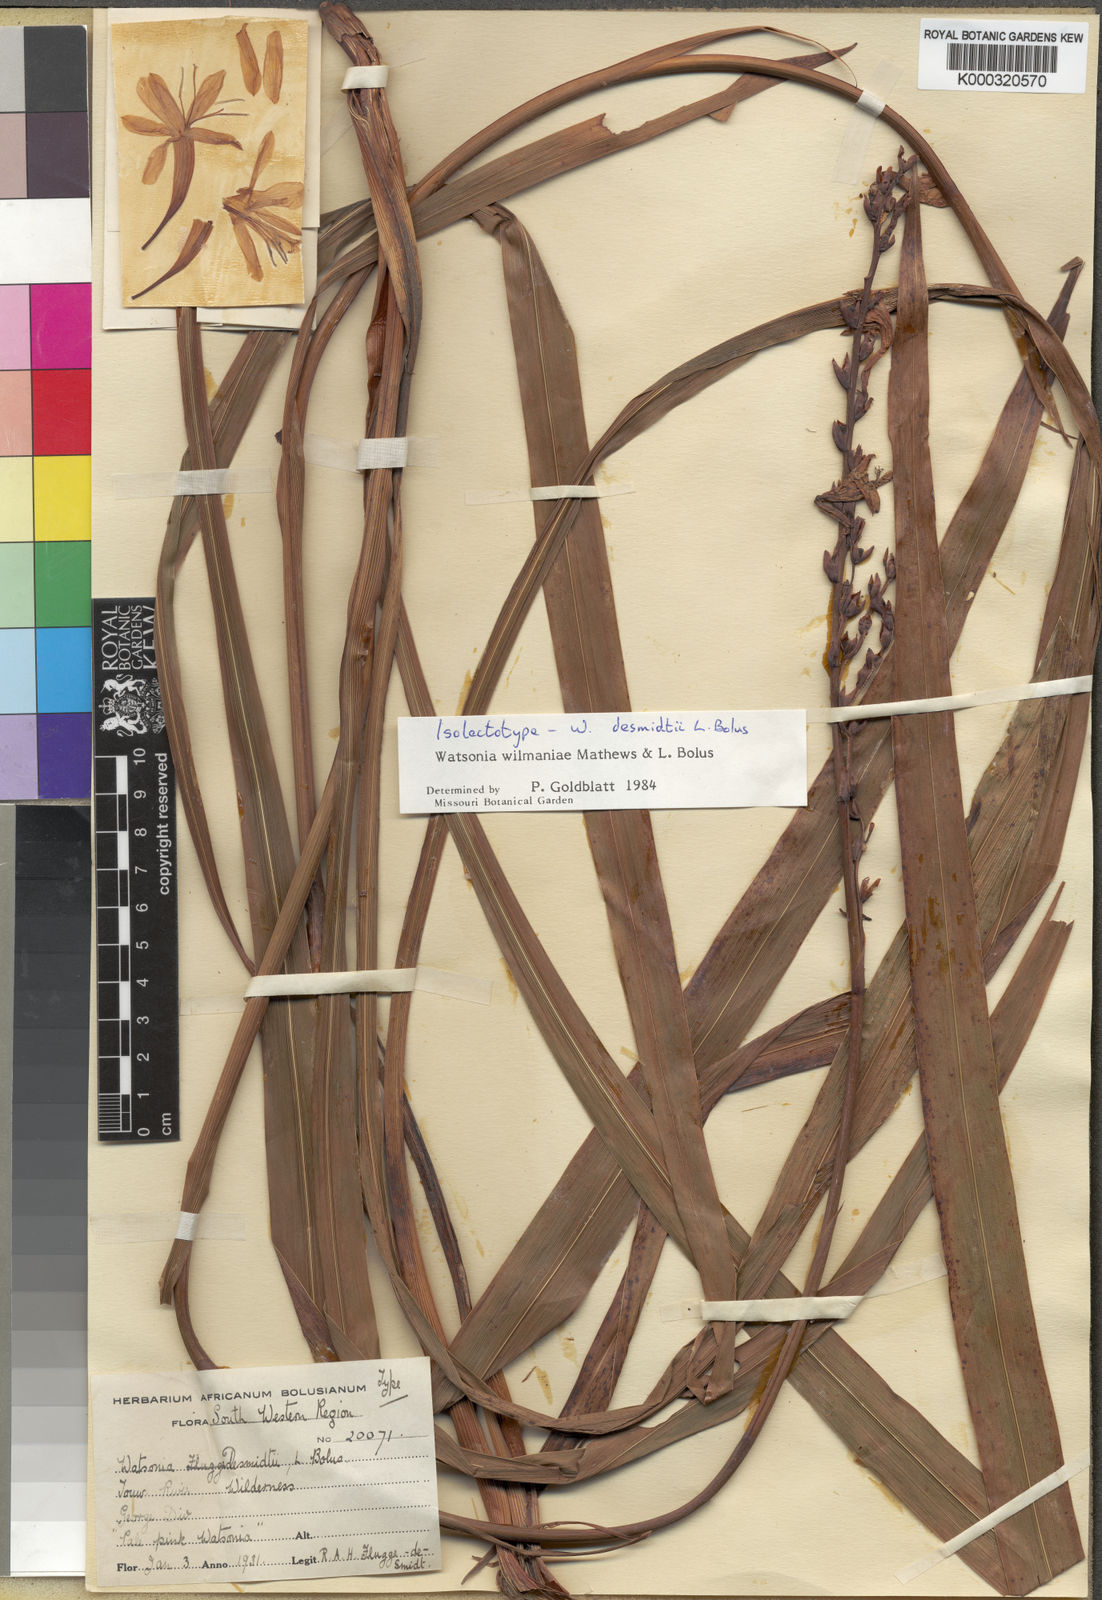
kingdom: Plantae
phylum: Tracheophyta
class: Liliopsida
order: Asparagales
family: Iridaceae
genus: Watsonia
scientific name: Watsonia wilmaniae
